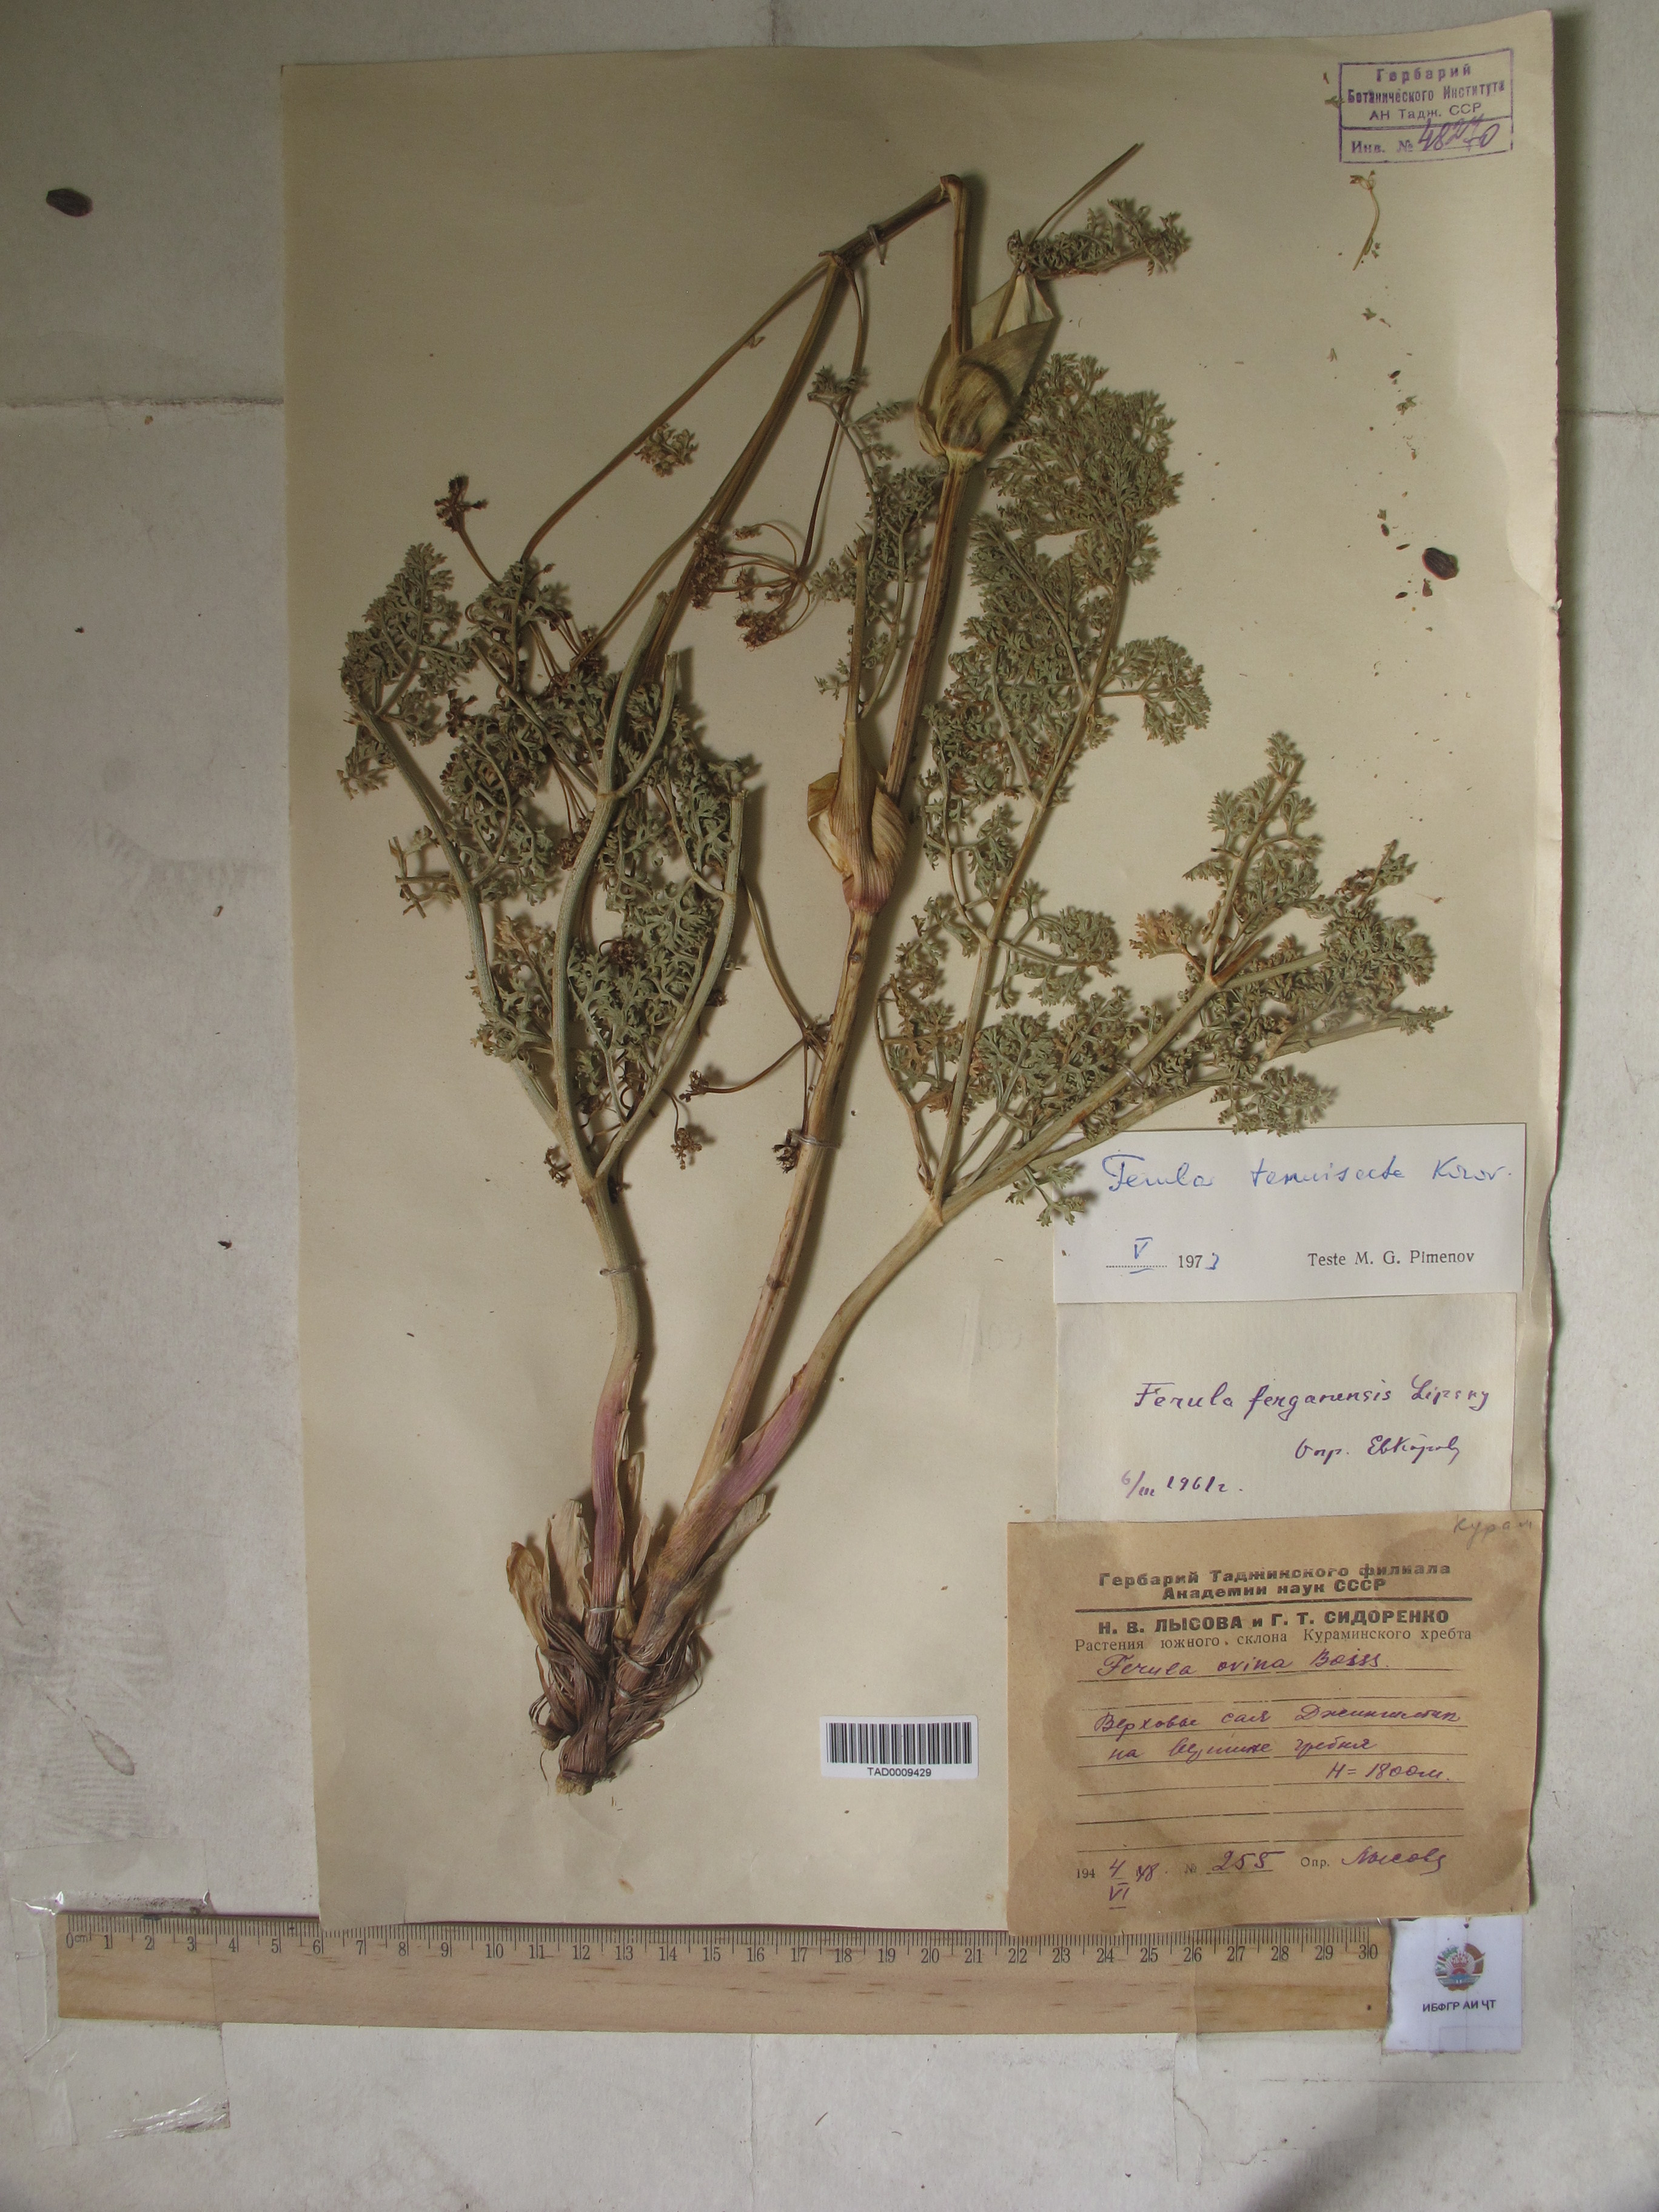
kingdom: Plantae
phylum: Tracheophyta
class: Magnoliopsida
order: Apiales
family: Apiaceae
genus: Ferula
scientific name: Ferula tenuisecta
